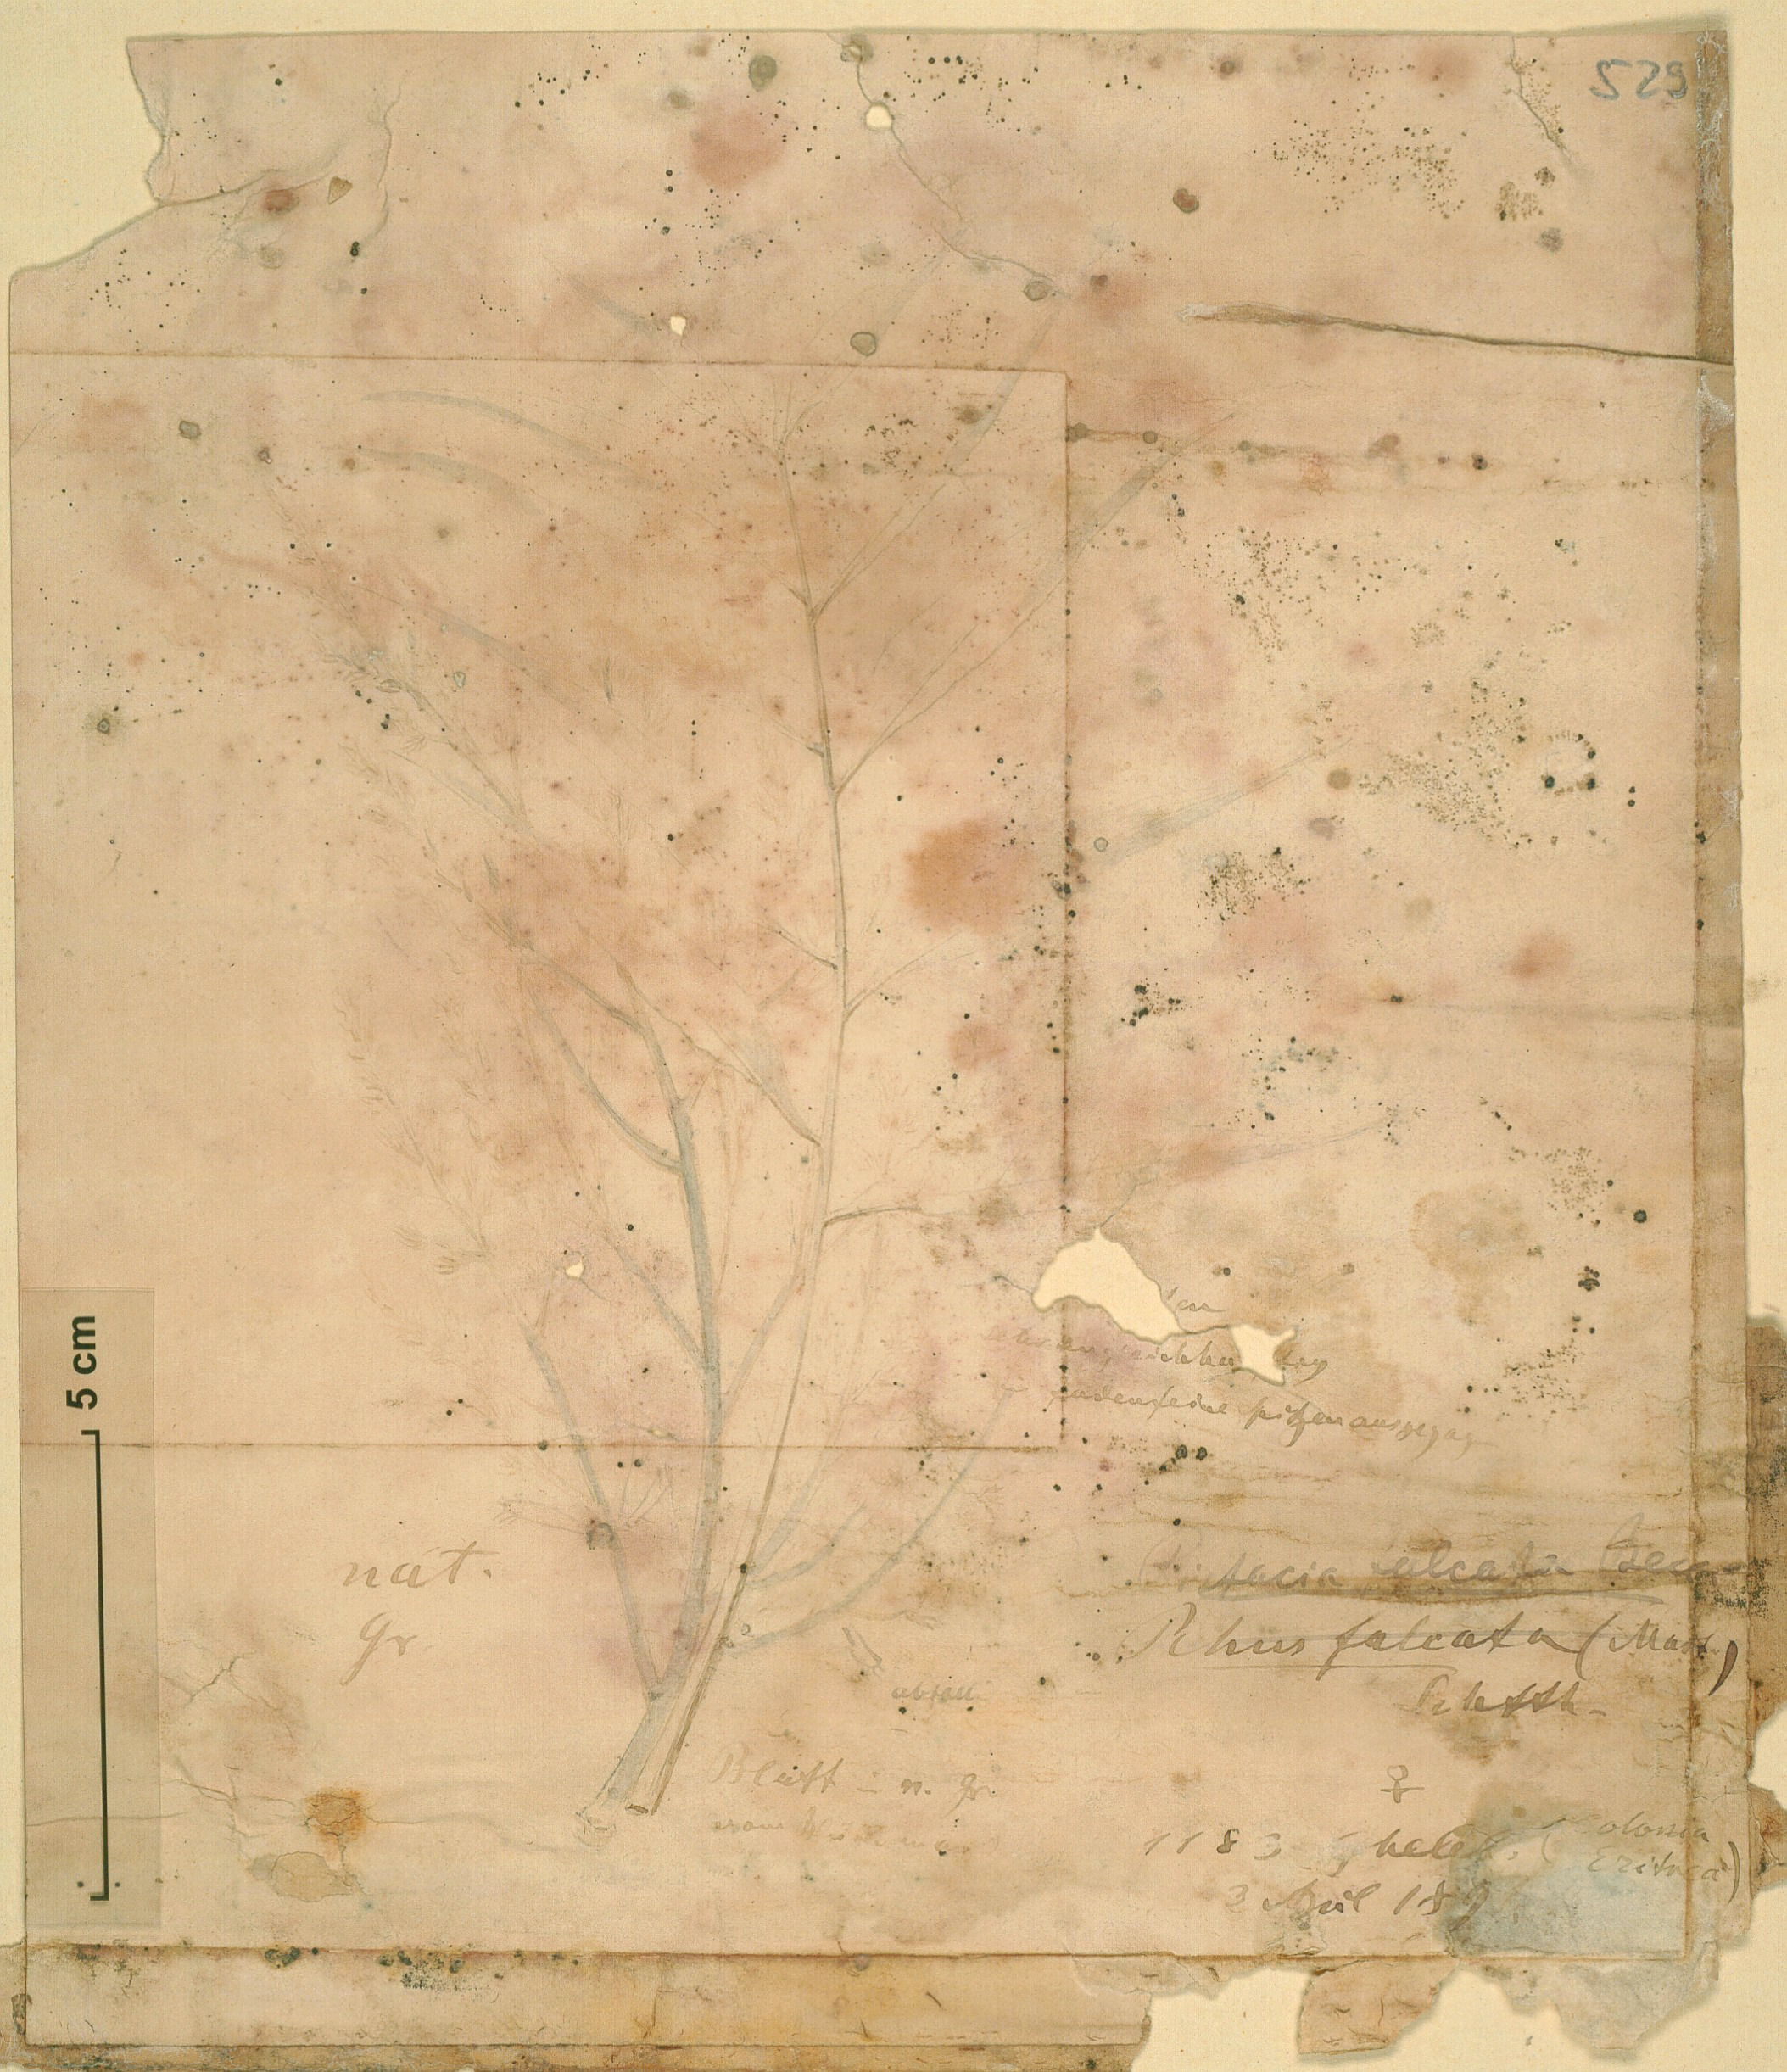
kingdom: Plantae
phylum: Tracheophyta
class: Magnoliopsida
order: Sapindales
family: Anacardiaceae
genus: Pistacia
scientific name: Pistacia falcata
